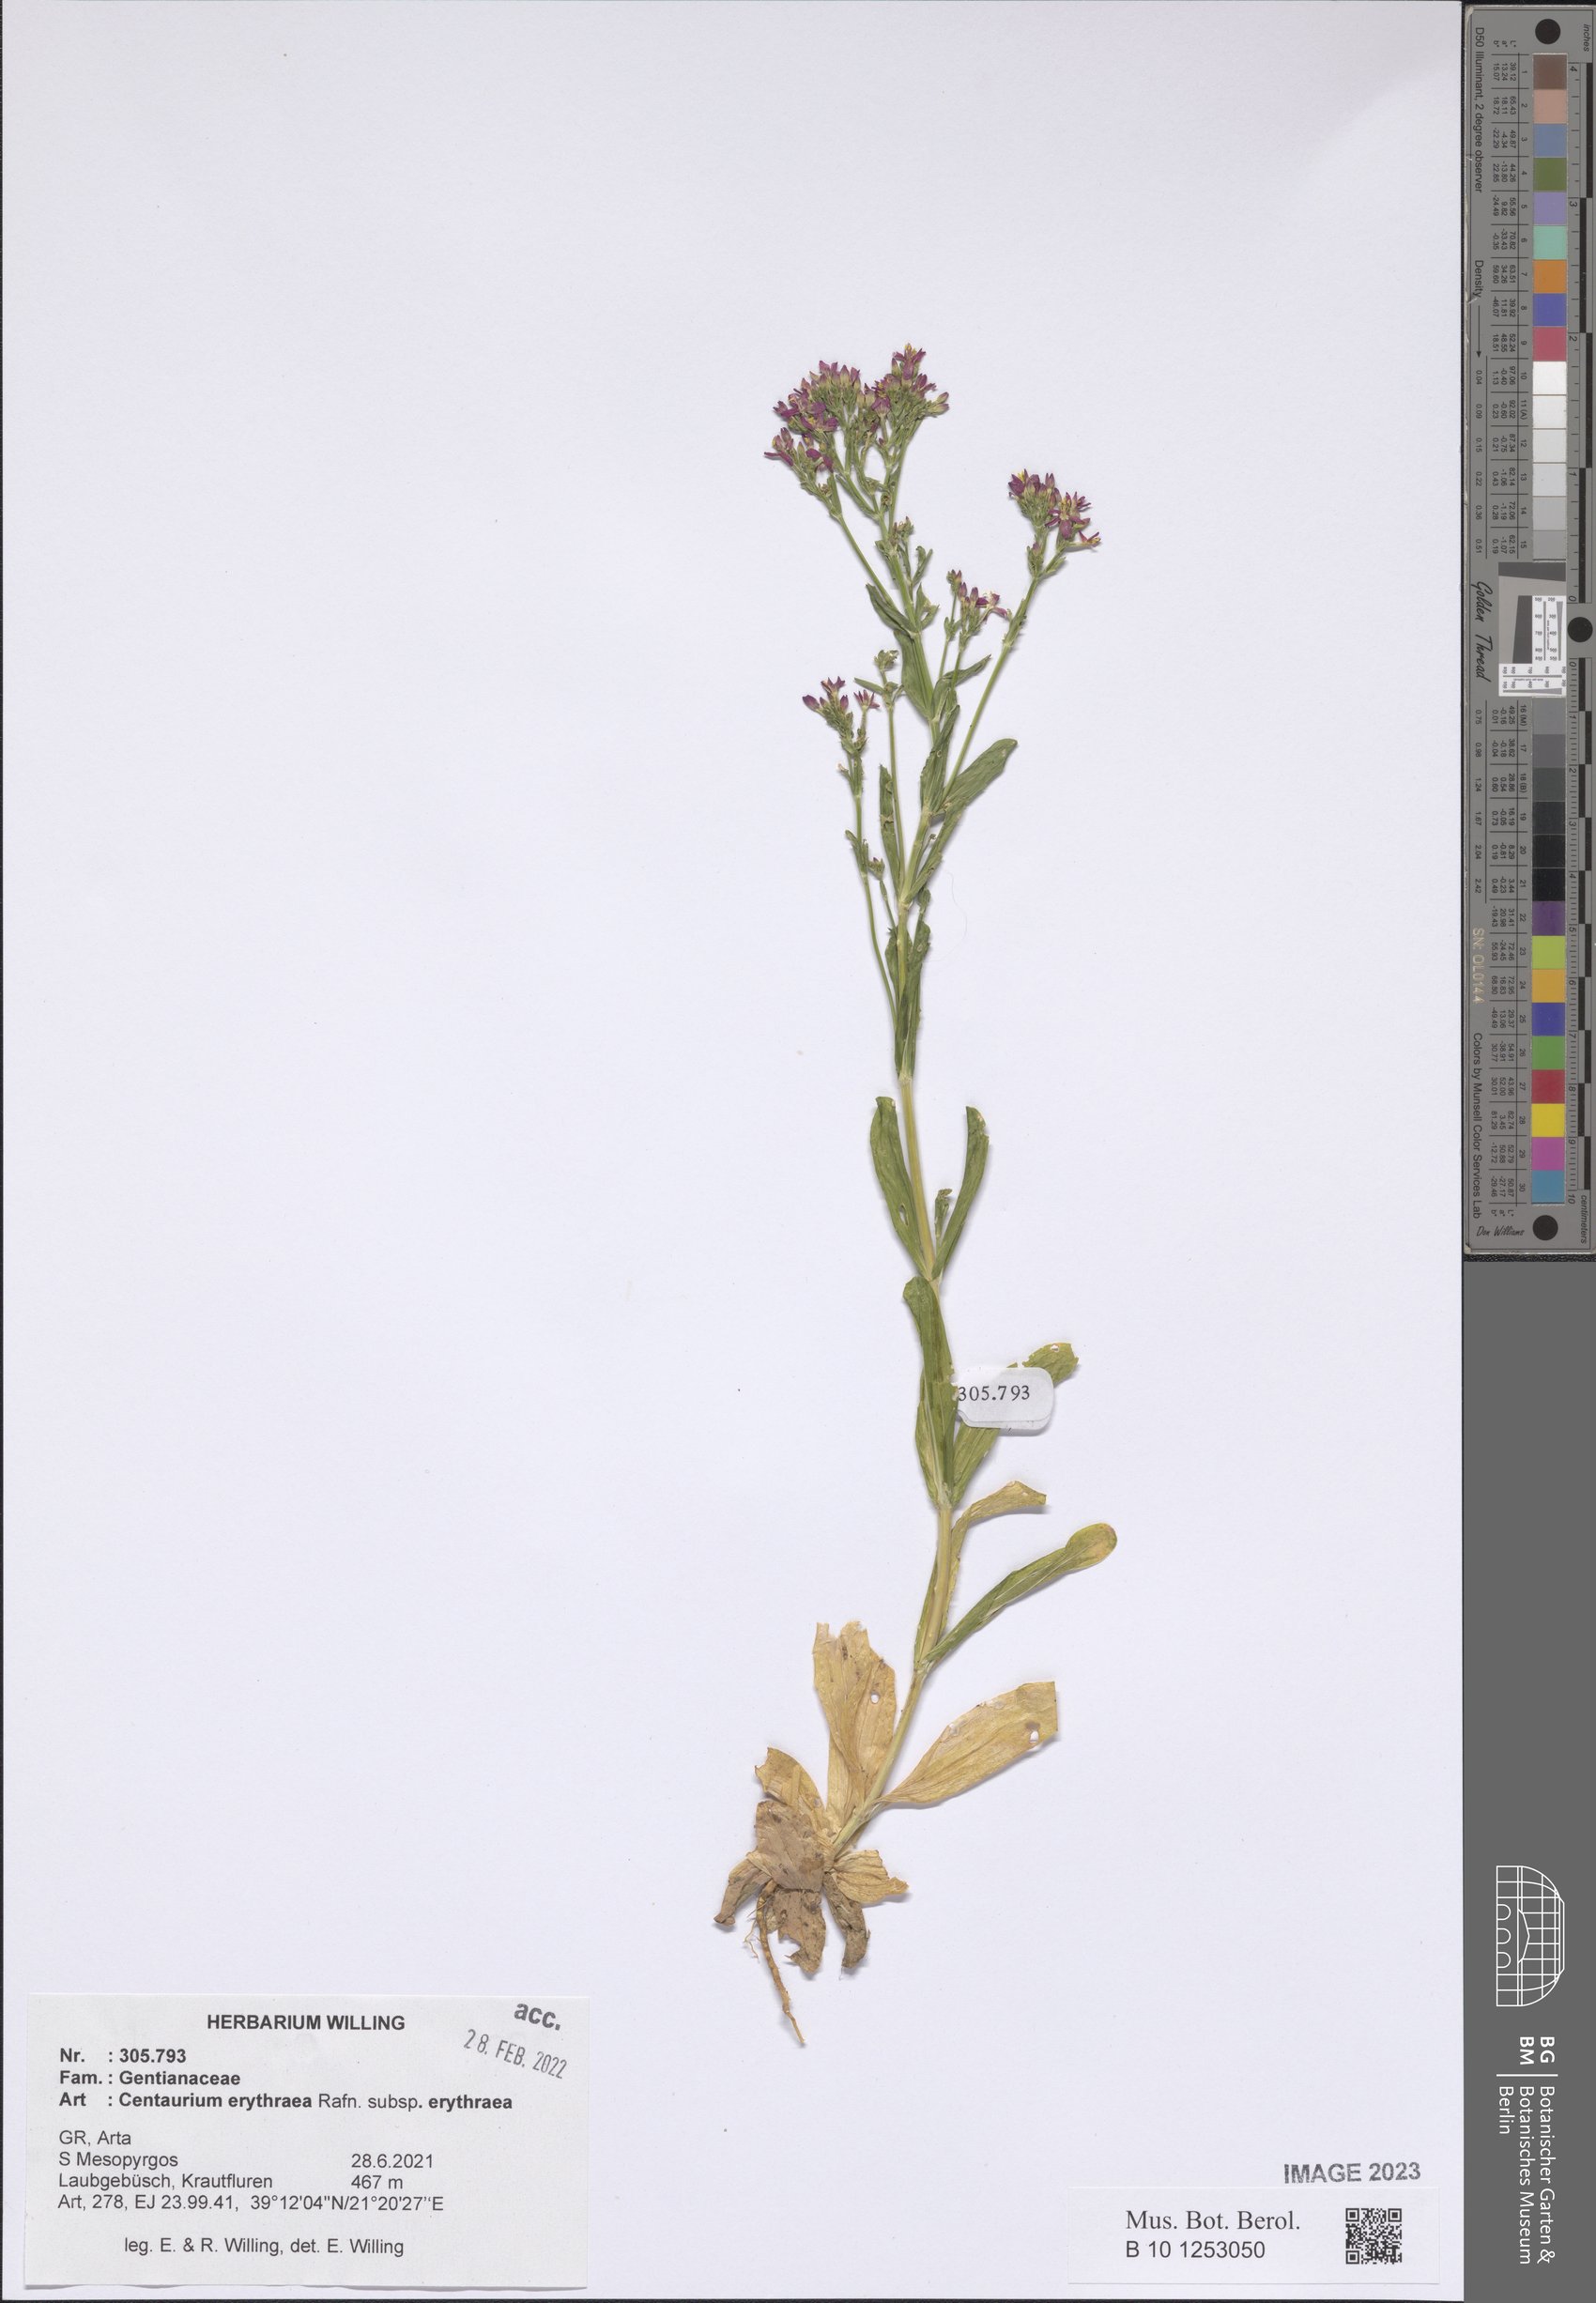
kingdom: Plantae
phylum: Tracheophyta
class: Magnoliopsida
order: Gentianales
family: Gentianaceae
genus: Centaurium
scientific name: Centaurium erythraea
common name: Common centaury
